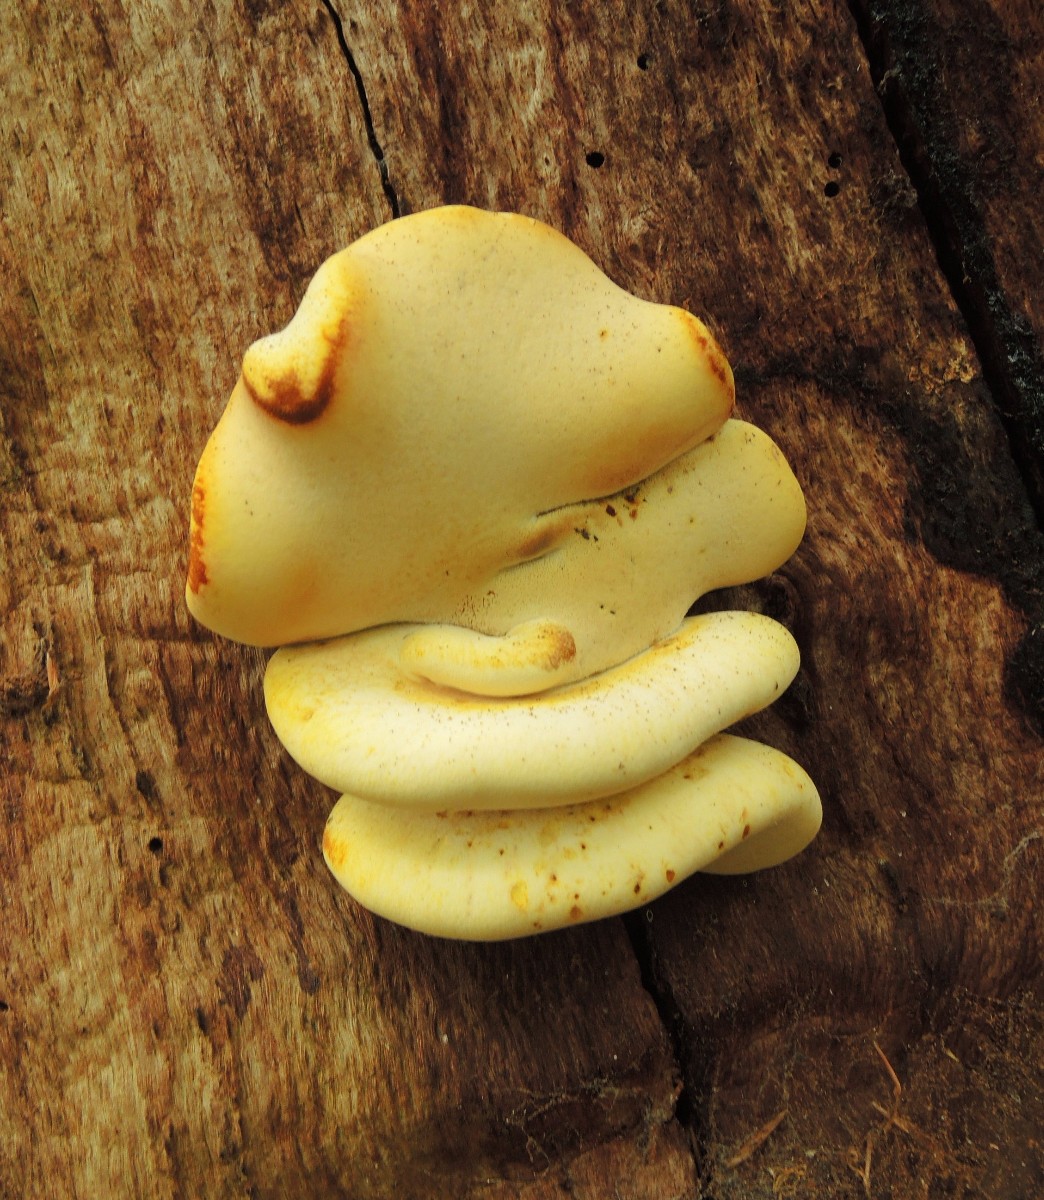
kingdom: Fungi
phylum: Basidiomycota
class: Agaricomycetes
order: Polyporales
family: Fomitopsidaceae
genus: Buglossoporus
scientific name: Buglossoporus quercinus
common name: egetunge
